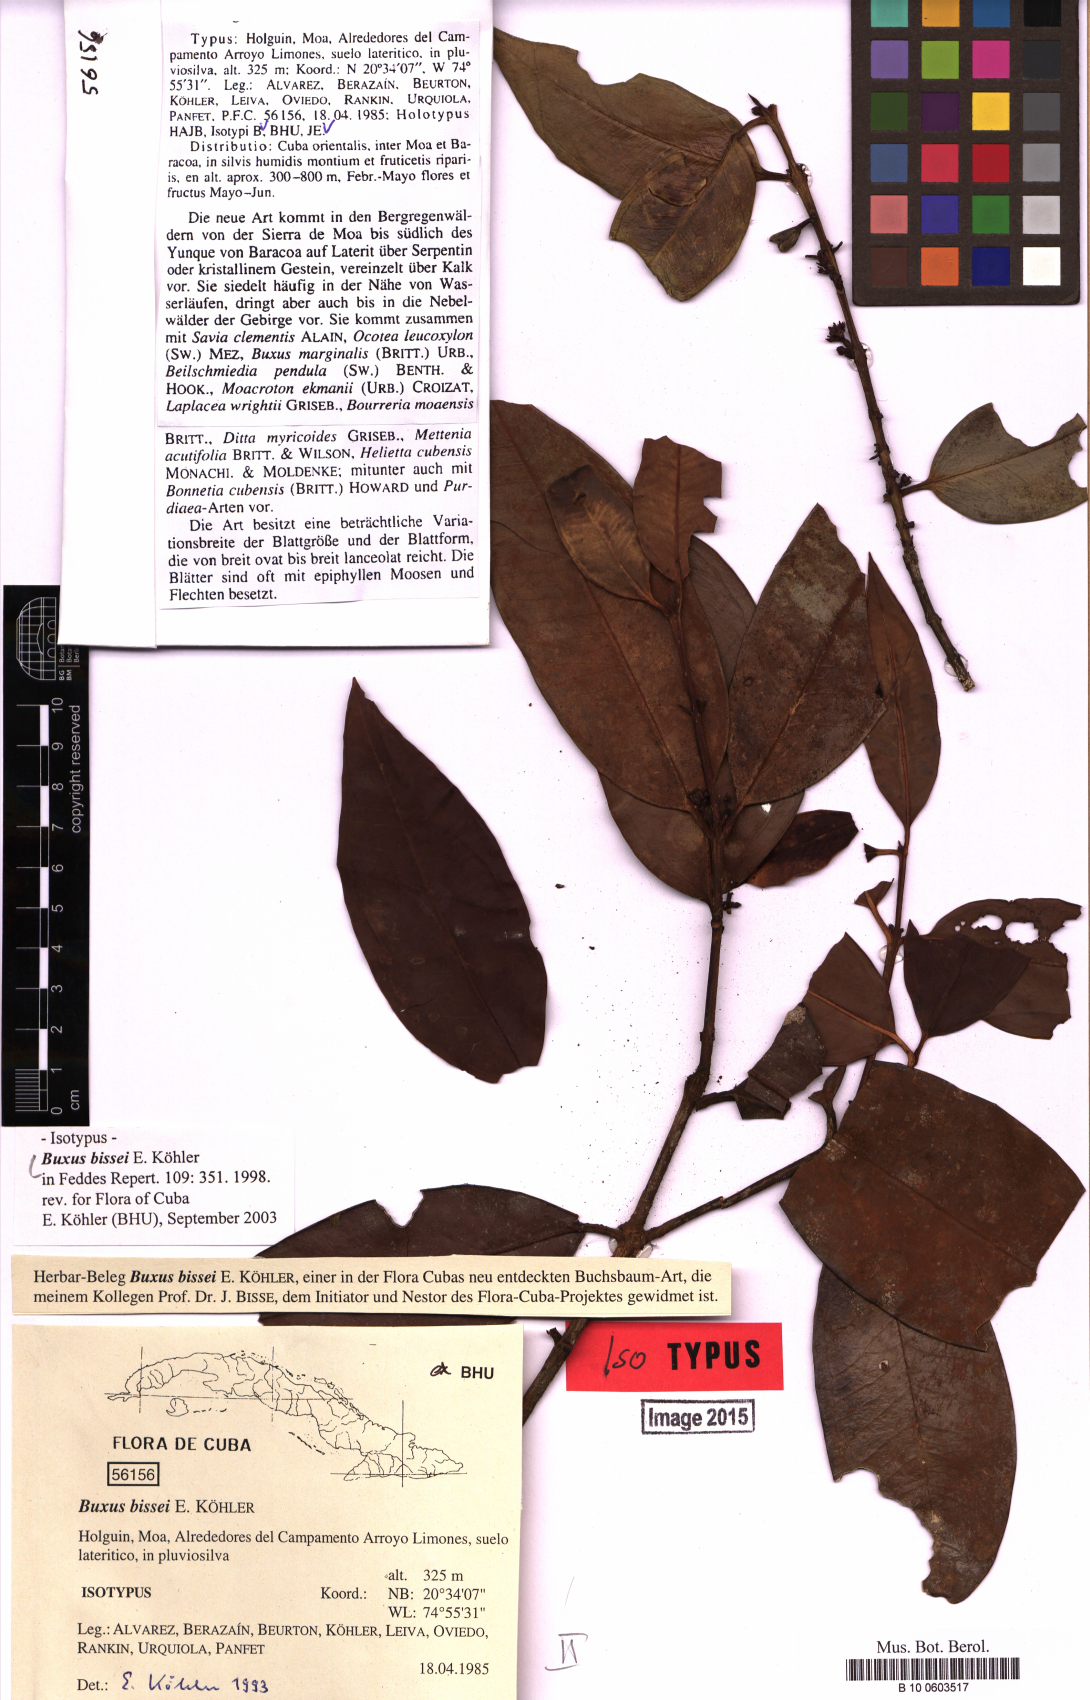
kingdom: Plantae
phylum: Tracheophyta
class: Magnoliopsida
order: Buxales
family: Buxaceae
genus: Buxus
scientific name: Buxus bissei
